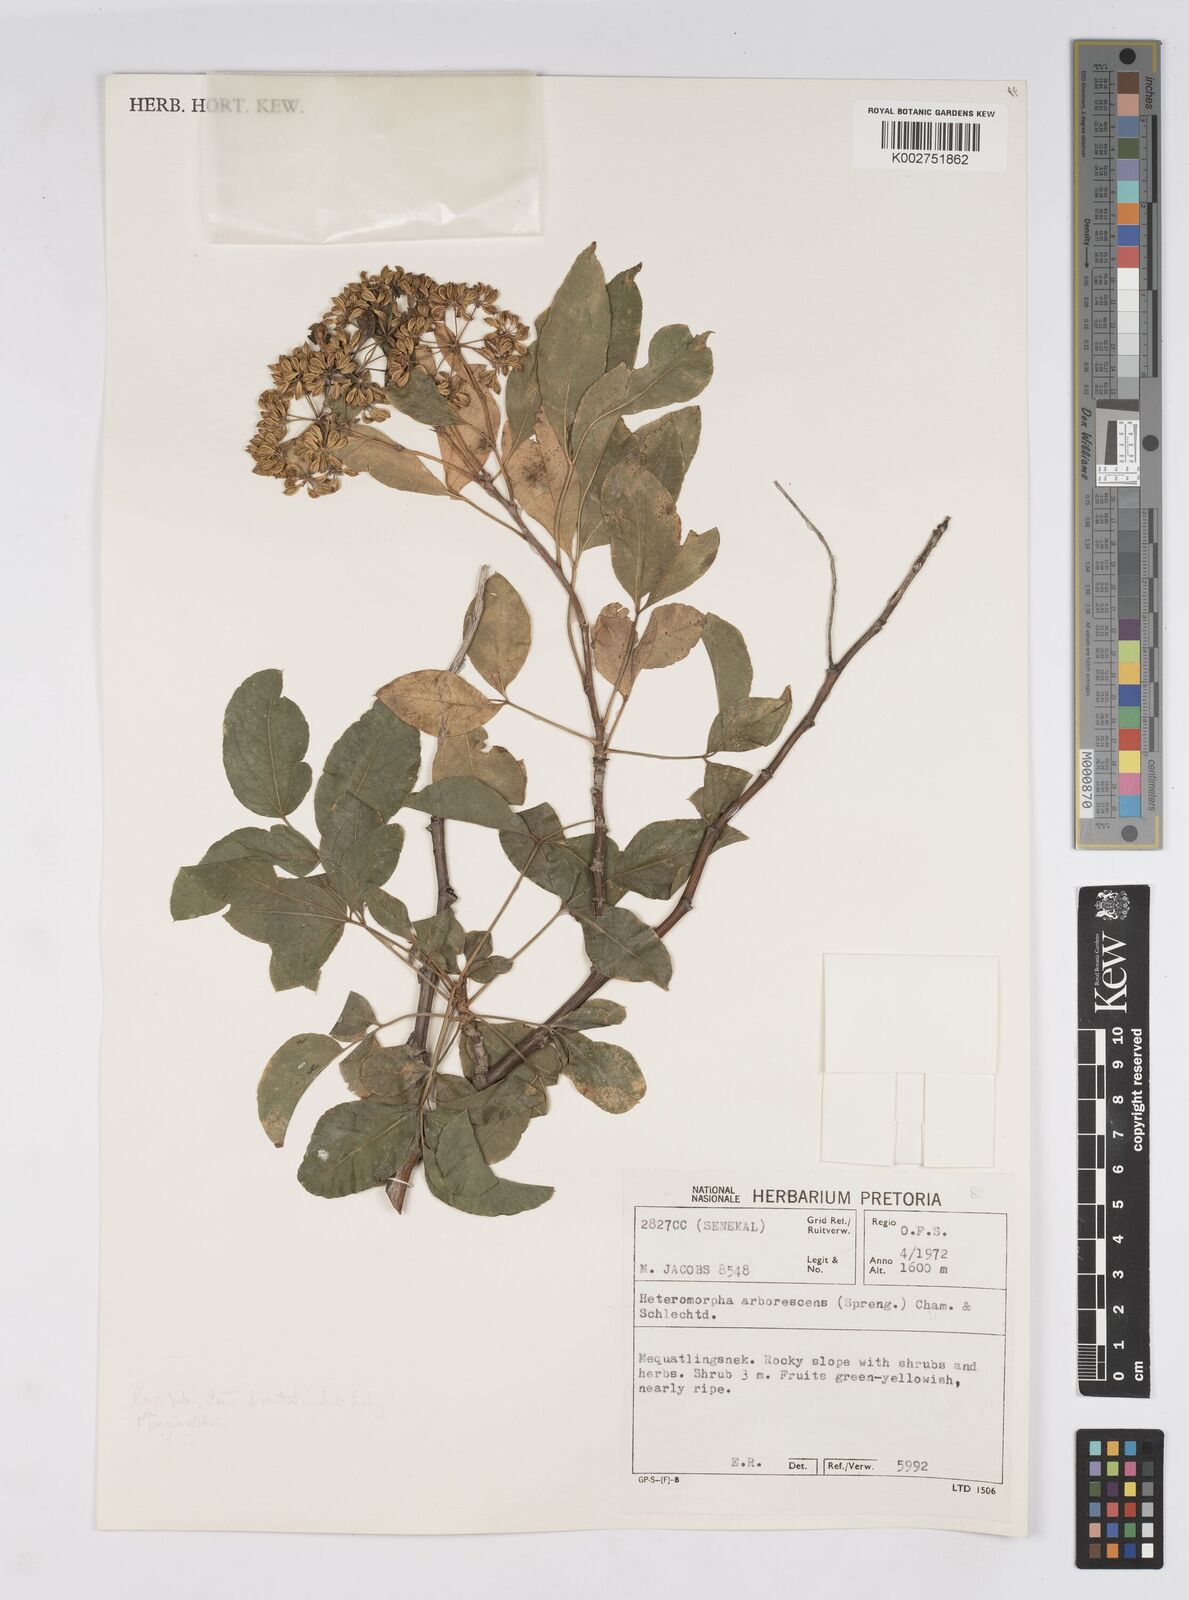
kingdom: Plantae
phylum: Tracheophyta
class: Magnoliopsida
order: Apiales
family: Apiaceae
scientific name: Apiaceae
